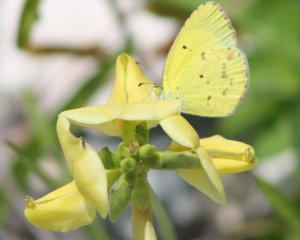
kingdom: Animalia
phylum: Arthropoda
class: Insecta
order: Lepidoptera
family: Pieridae
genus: Pyrisitia
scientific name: Pyrisitia lisa
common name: Little Yellow
